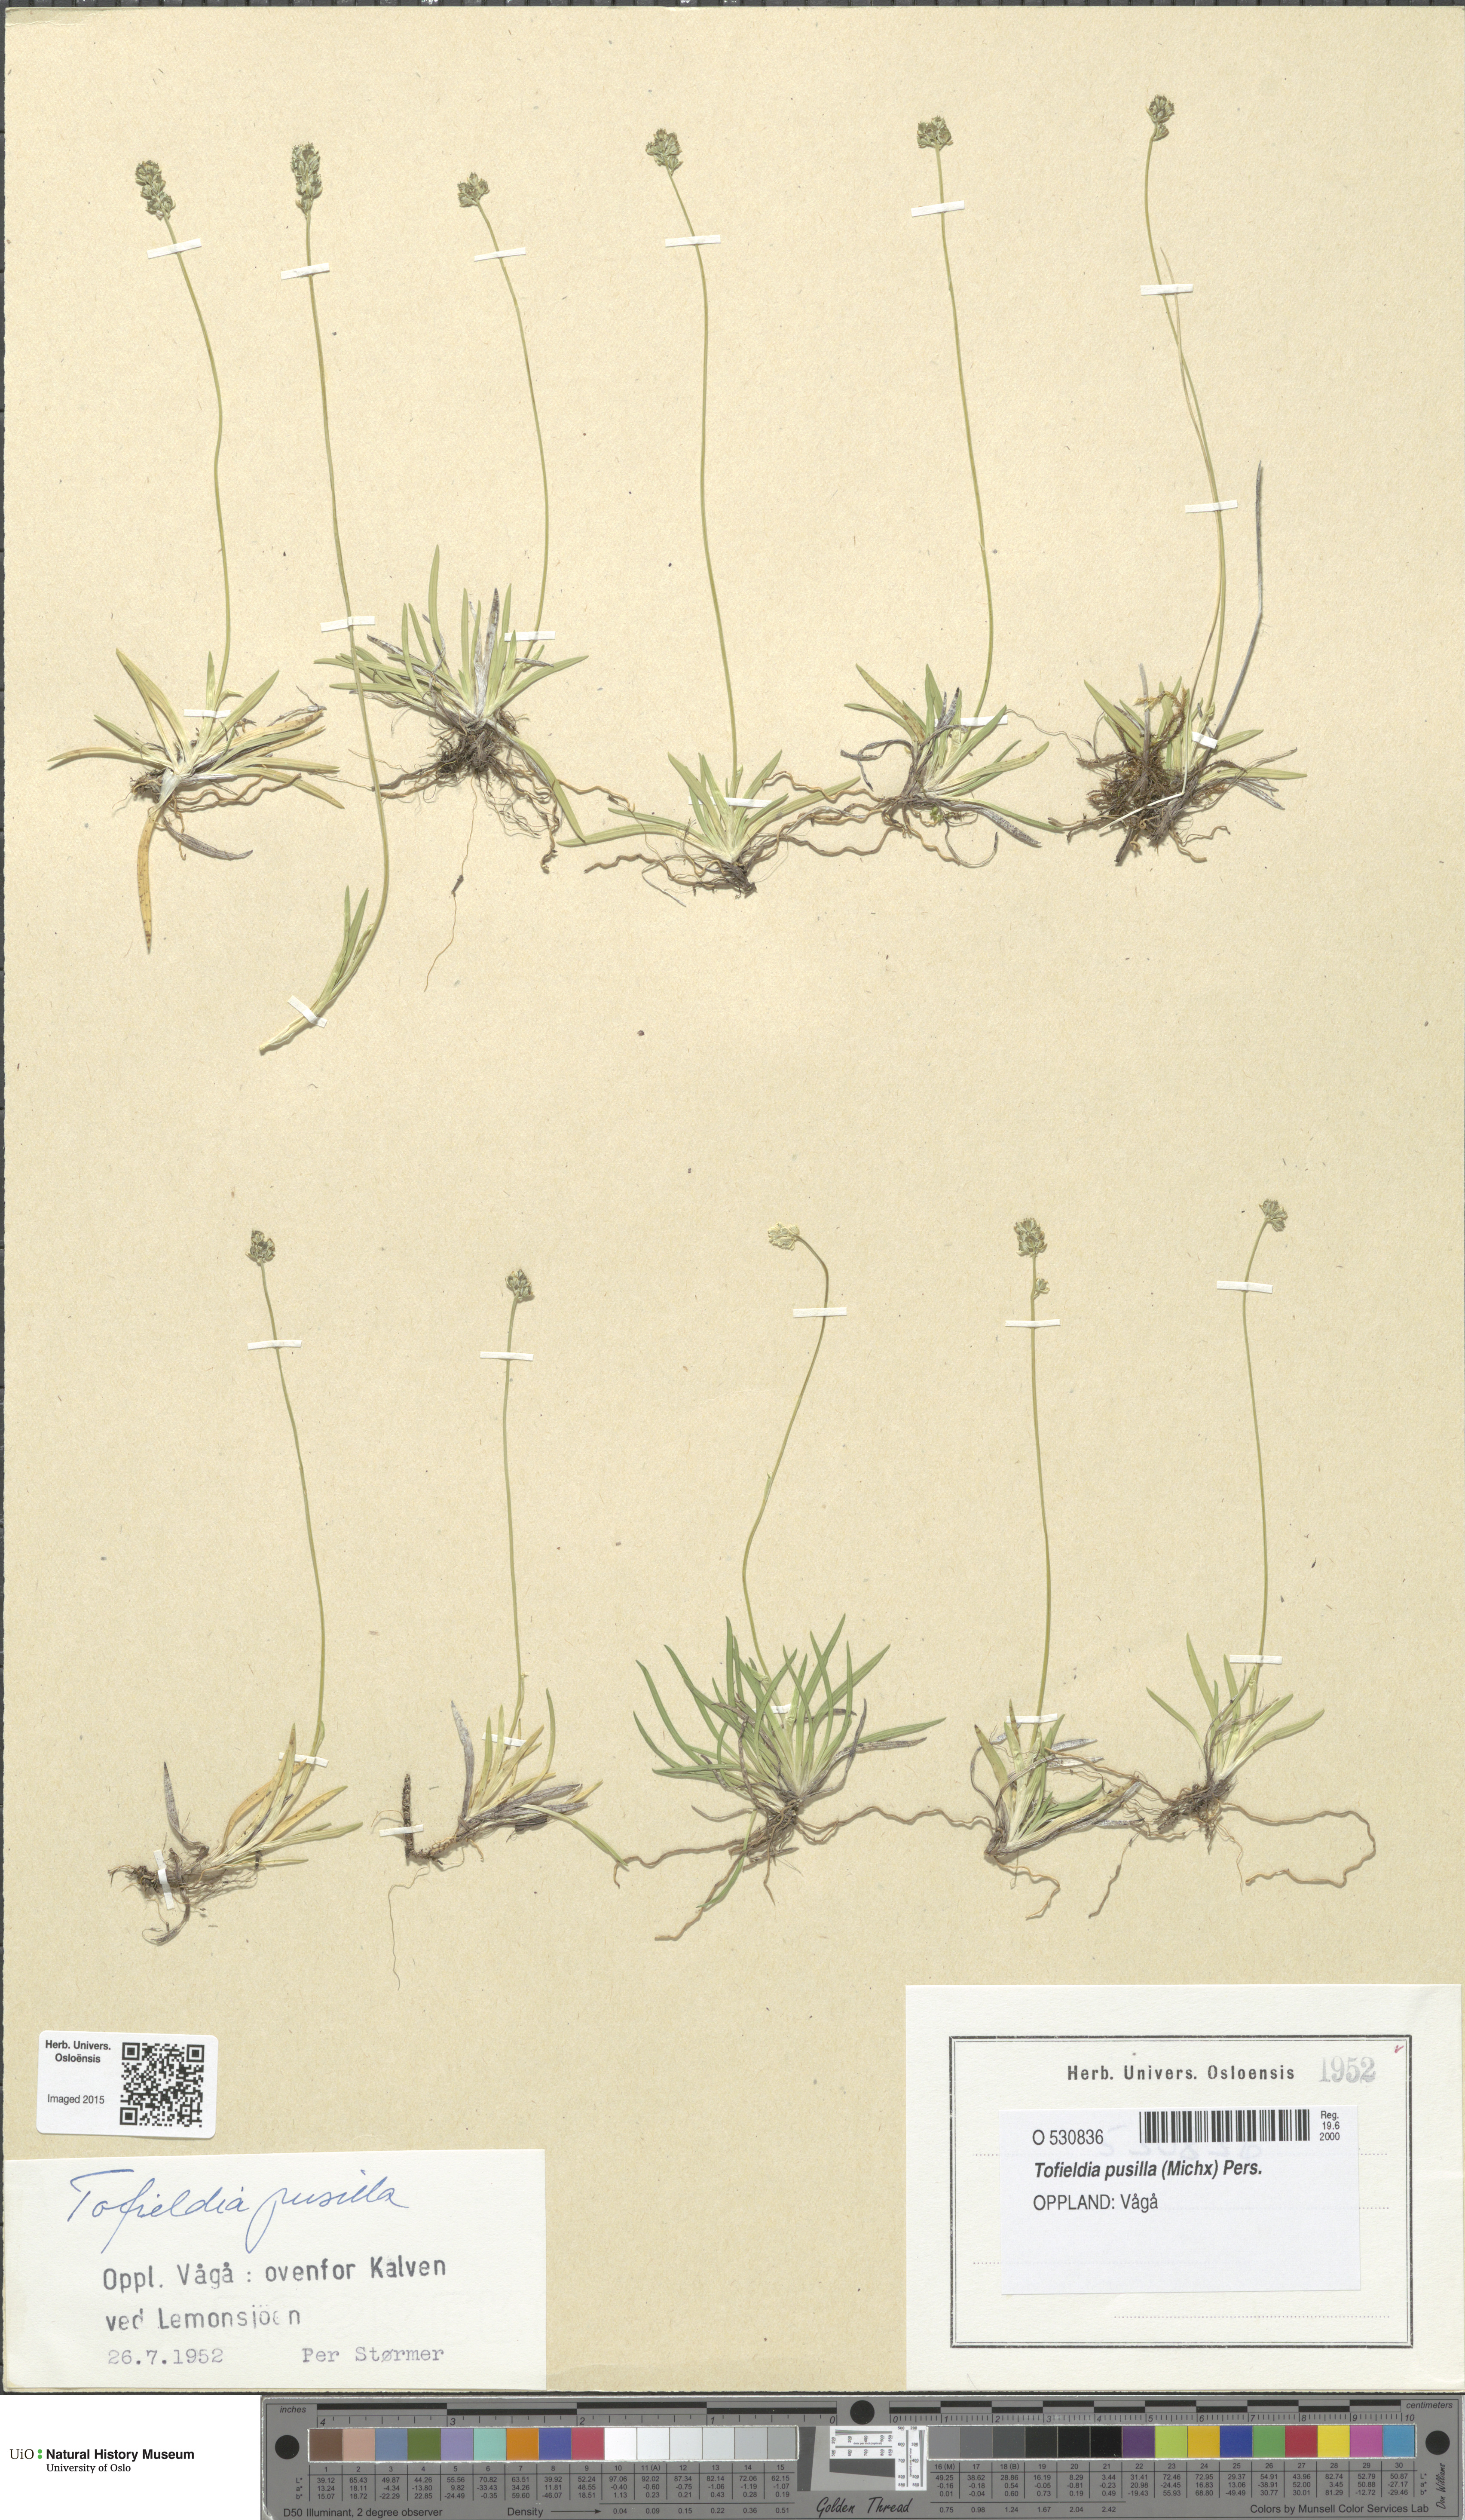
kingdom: Plantae
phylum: Tracheophyta
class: Liliopsida
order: Alismatales
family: Tofieldiaceae
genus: Tofieldia
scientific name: Tofieldia pusilla
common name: Scottish false asphodel
